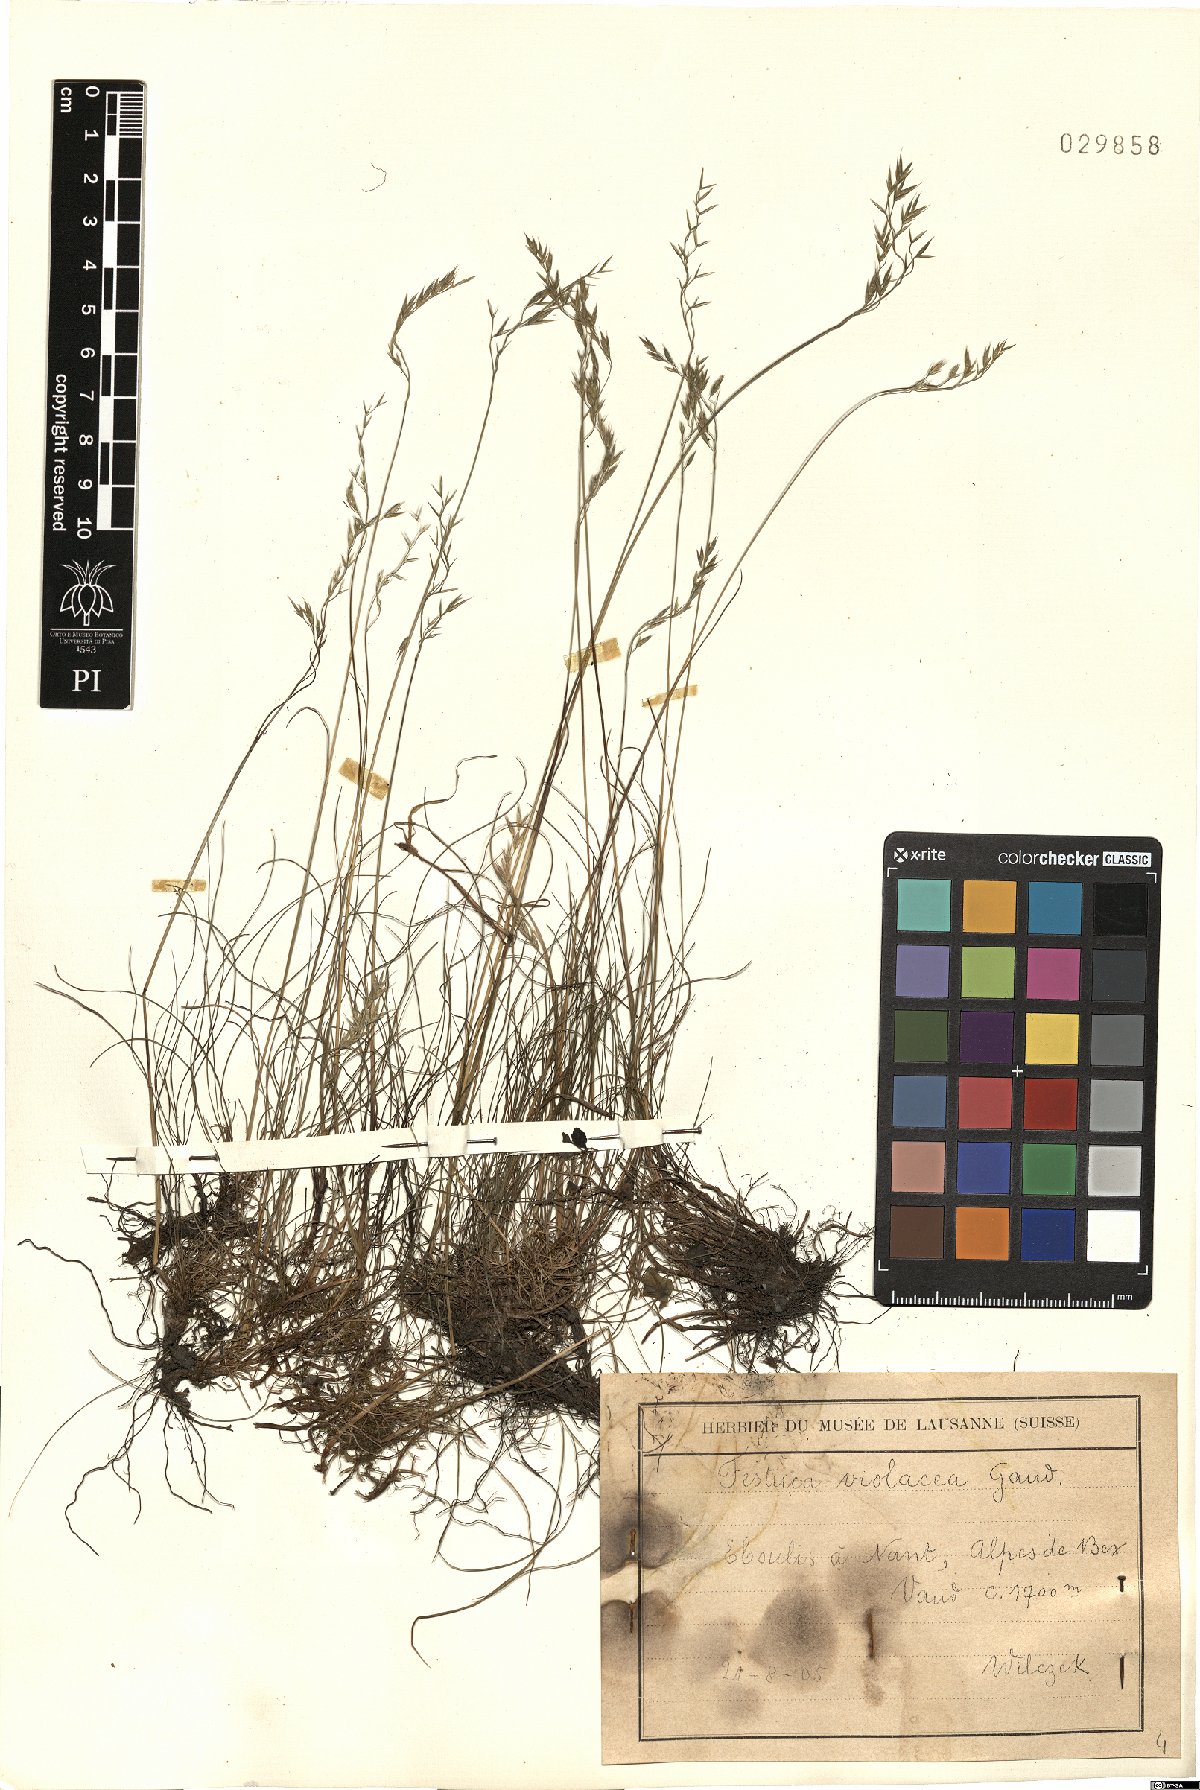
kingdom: Plantae
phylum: Tracheophyta
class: Liliopsida
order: Poales
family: Poaceae
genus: Festuca
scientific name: Festuca violacea
